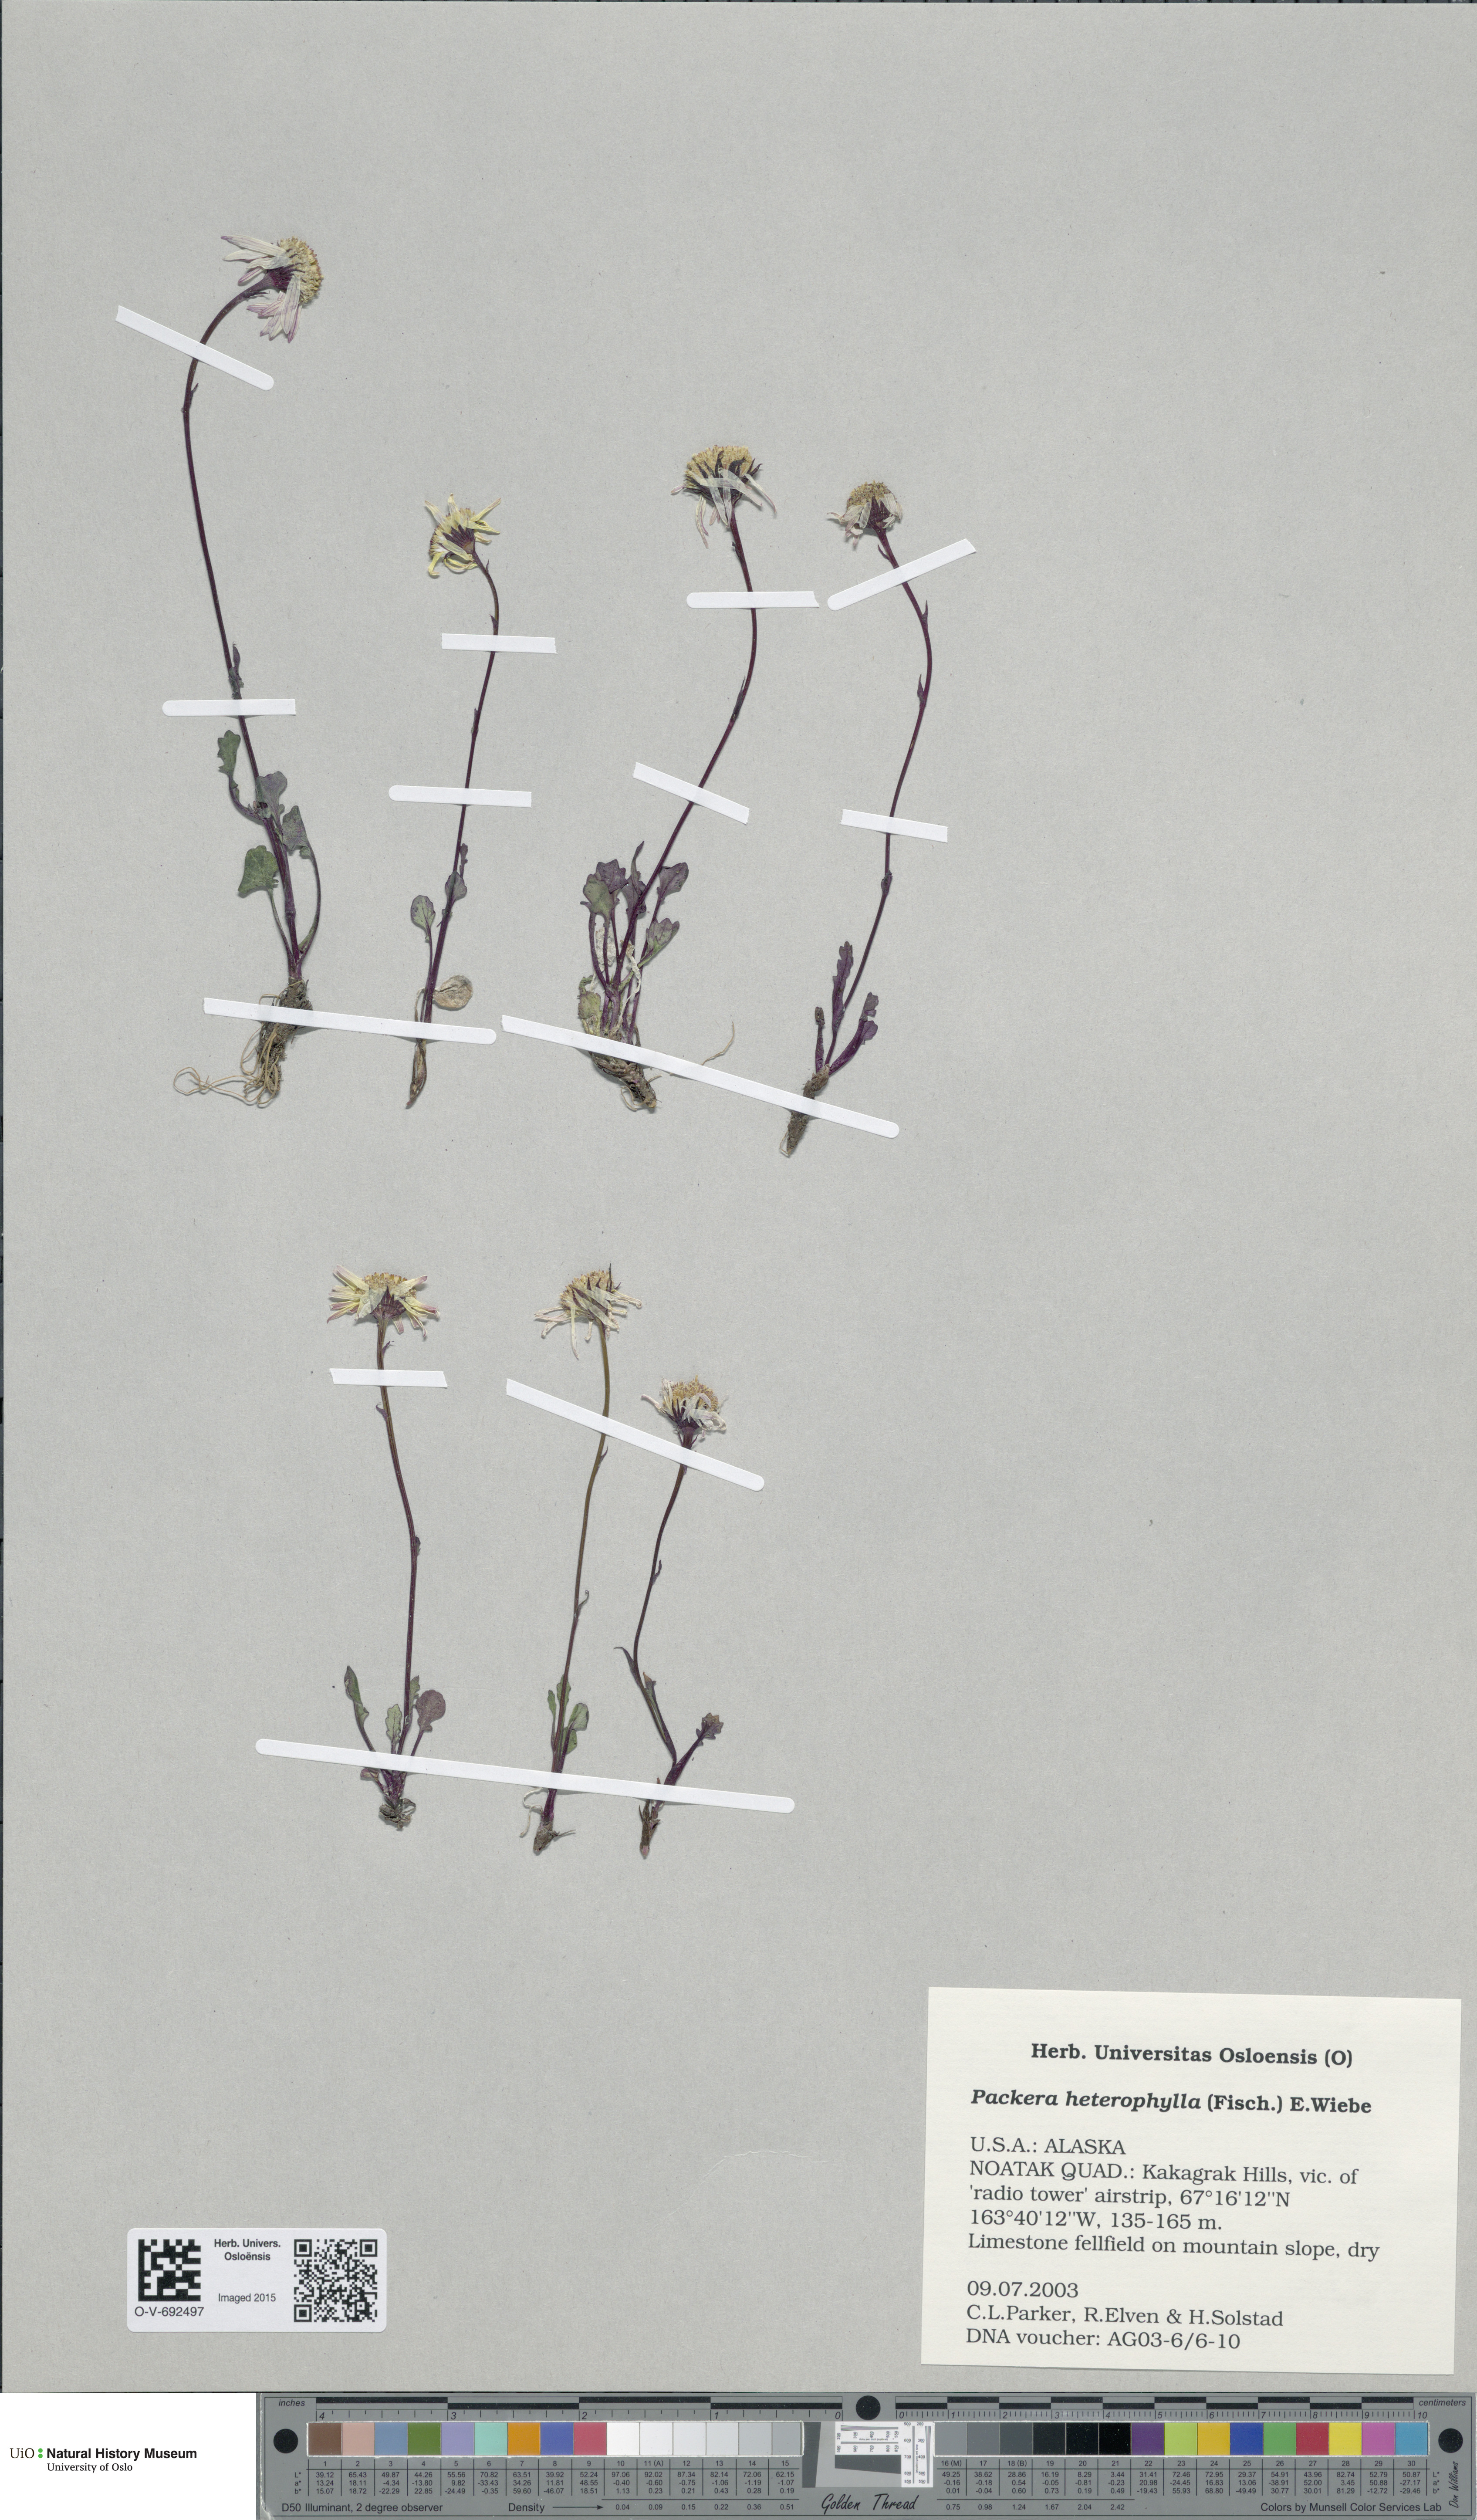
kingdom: Plantae
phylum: Tracheophyta
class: Magnoliopsida
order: Asterales
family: Asteraceae
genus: Packera
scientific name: Packera heterophylla
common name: Arctic butterweed
